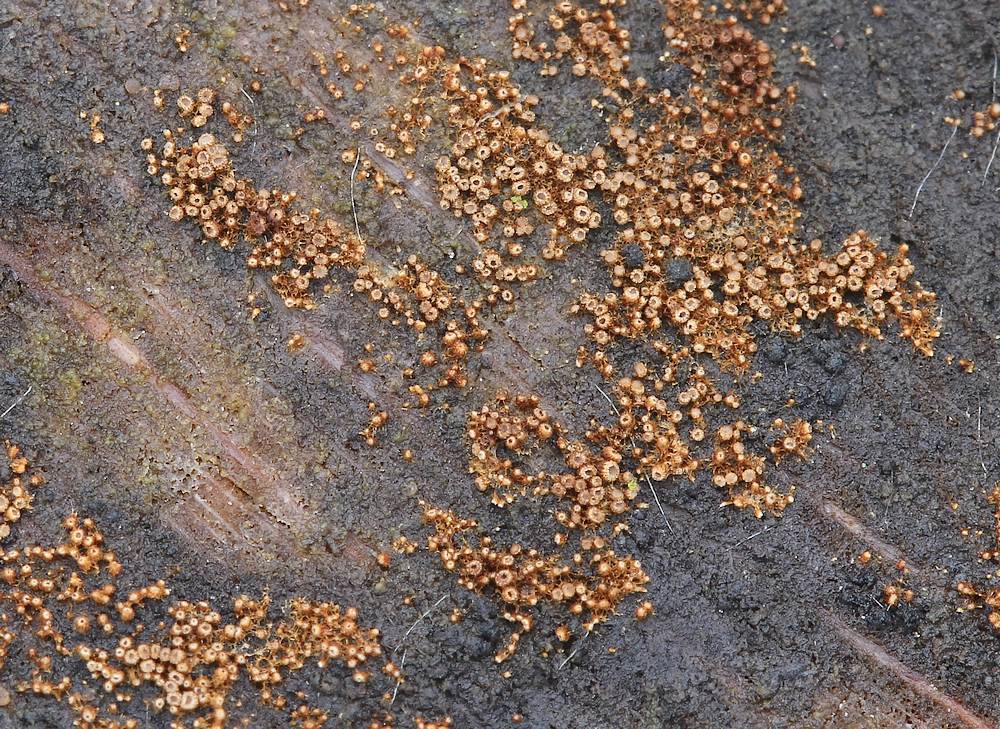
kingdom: Fungi
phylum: Basidiomycota
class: Agaricomycetes
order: Agaricales
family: Niaceae
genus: Merismodes
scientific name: Merismodes anomala
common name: almindelig læderskål
